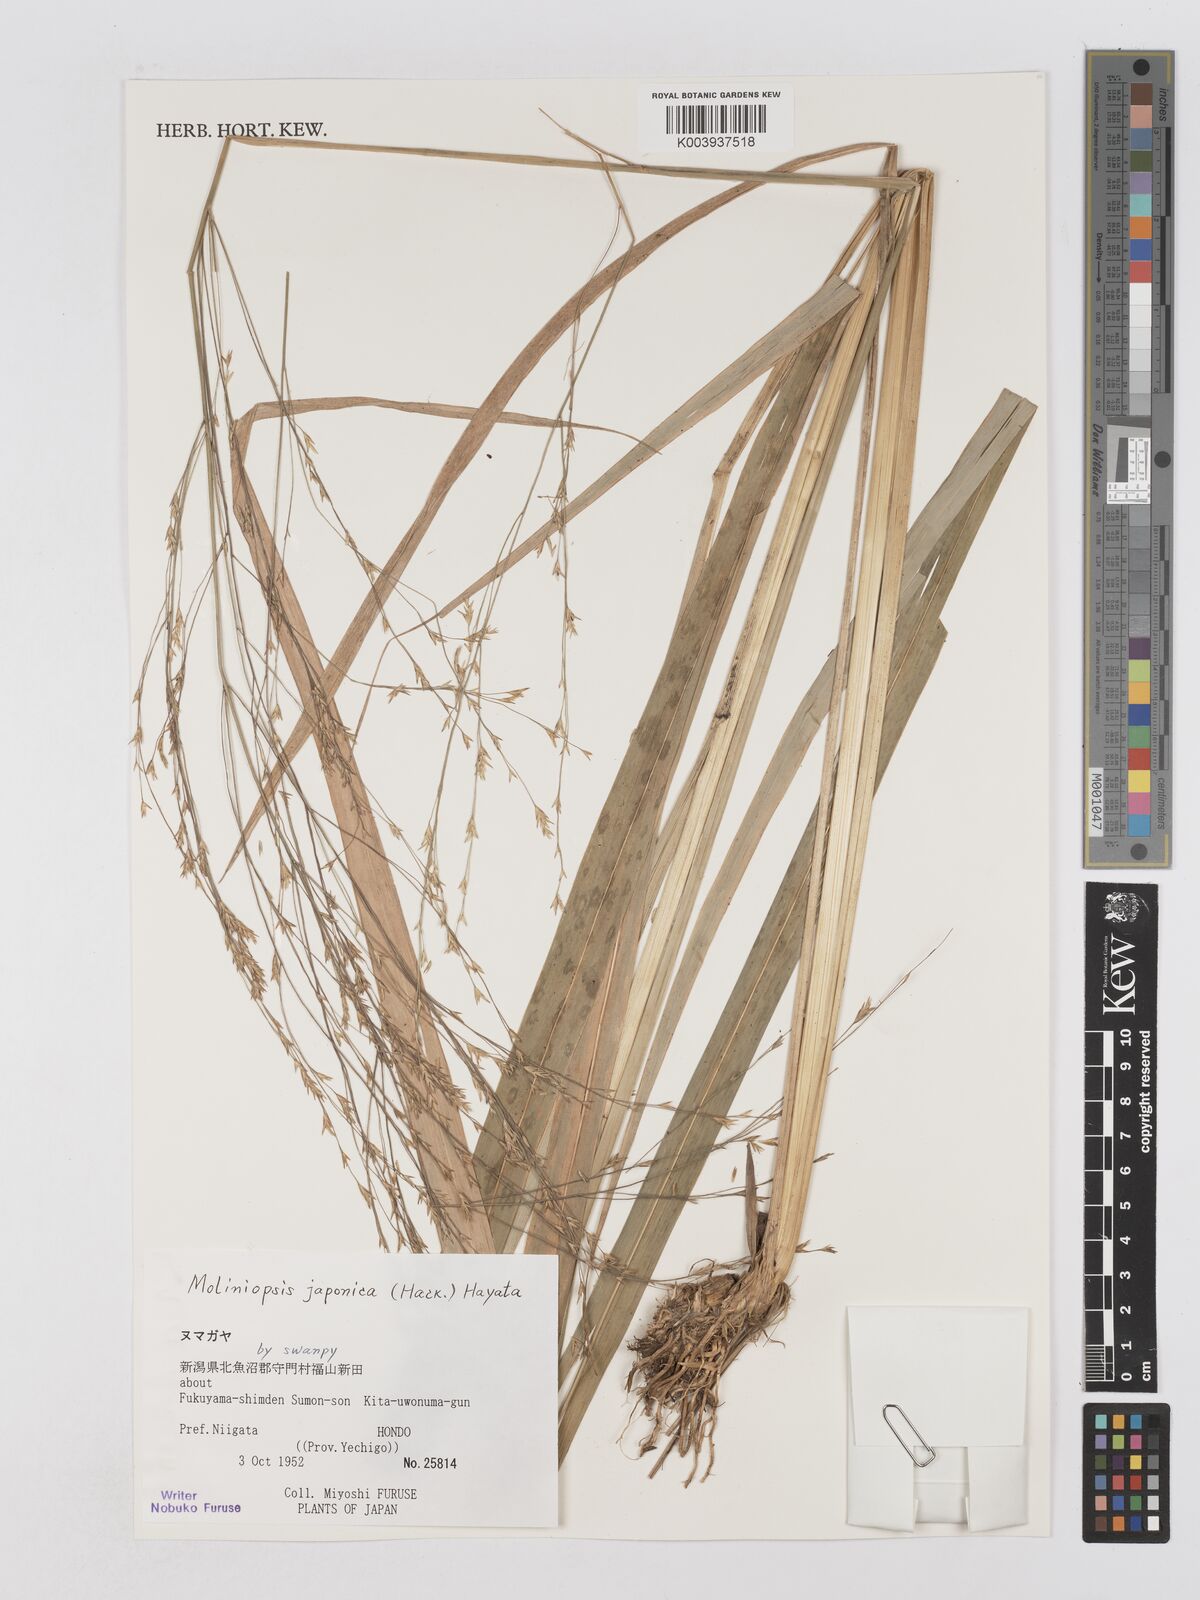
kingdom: Plantae
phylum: Tracheophyta
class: Liliopsida
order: Poales
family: Poaceae
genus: Moliniopsis
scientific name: Moliniopsis japonica
